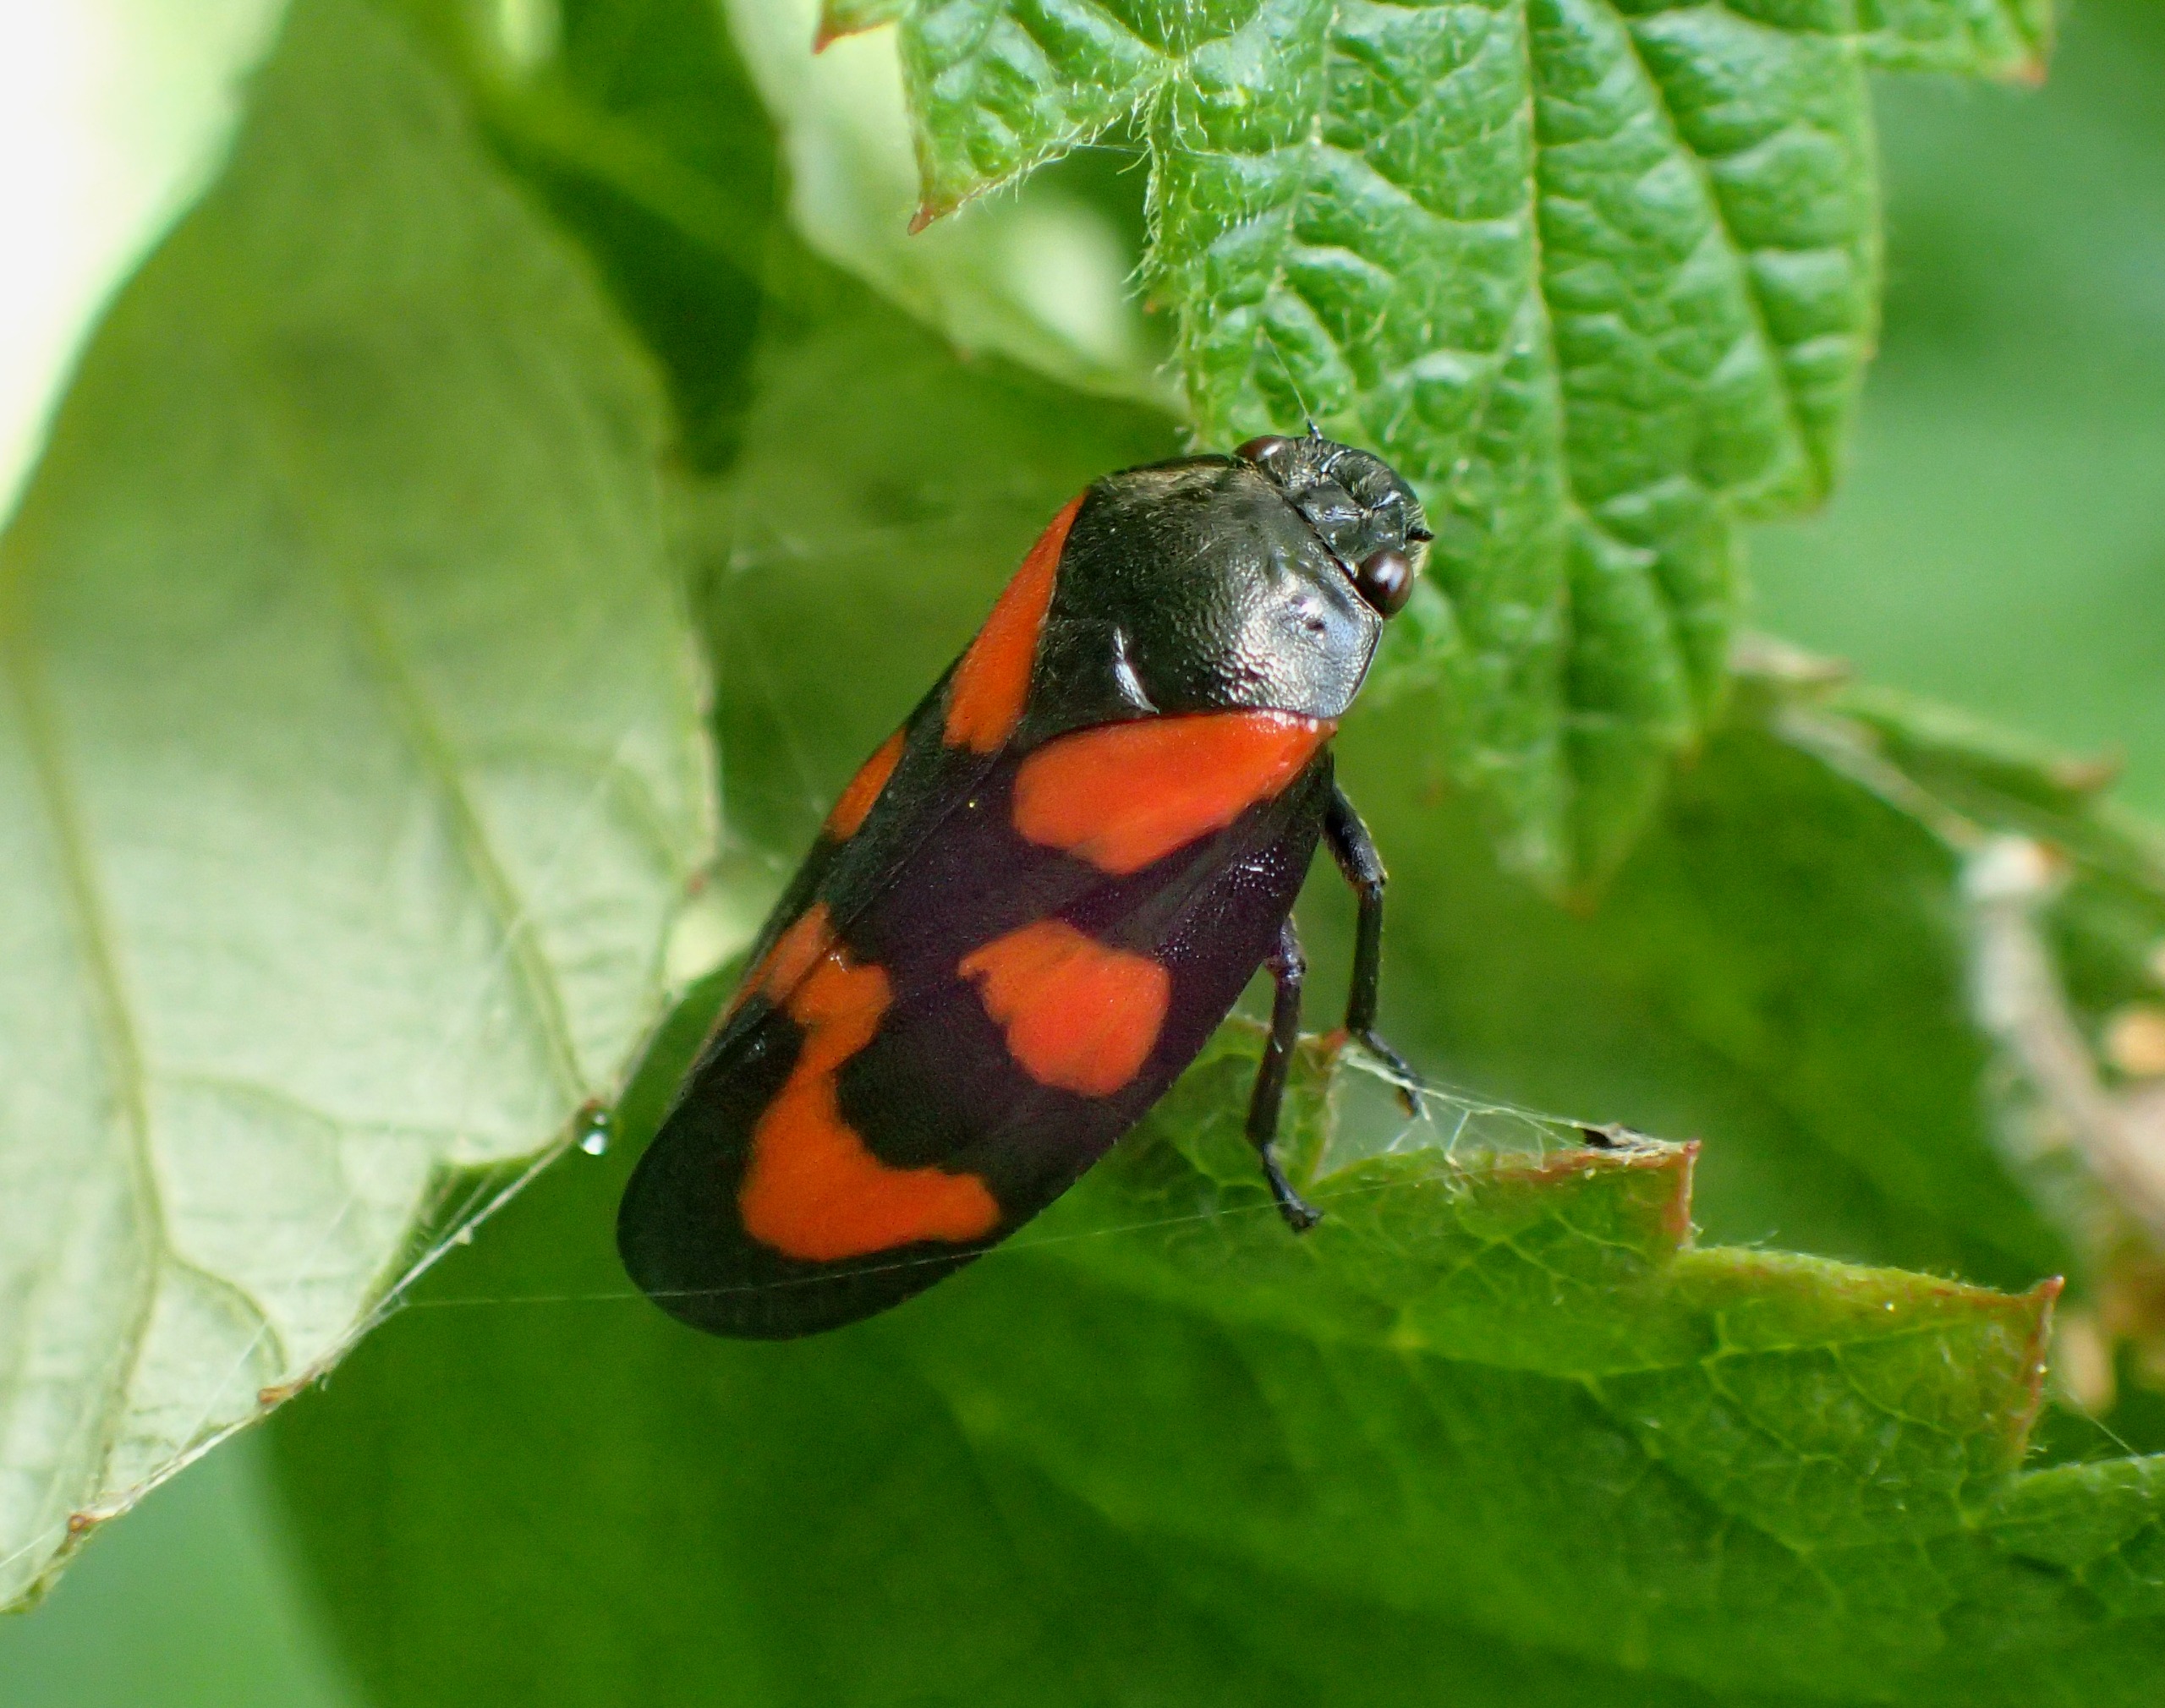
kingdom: Animalia
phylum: Arthropoda
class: Insecta
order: Hemiptera
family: Cercopidae
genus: Cercopis
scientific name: Cercopis vulnerata
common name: Blodcikade
